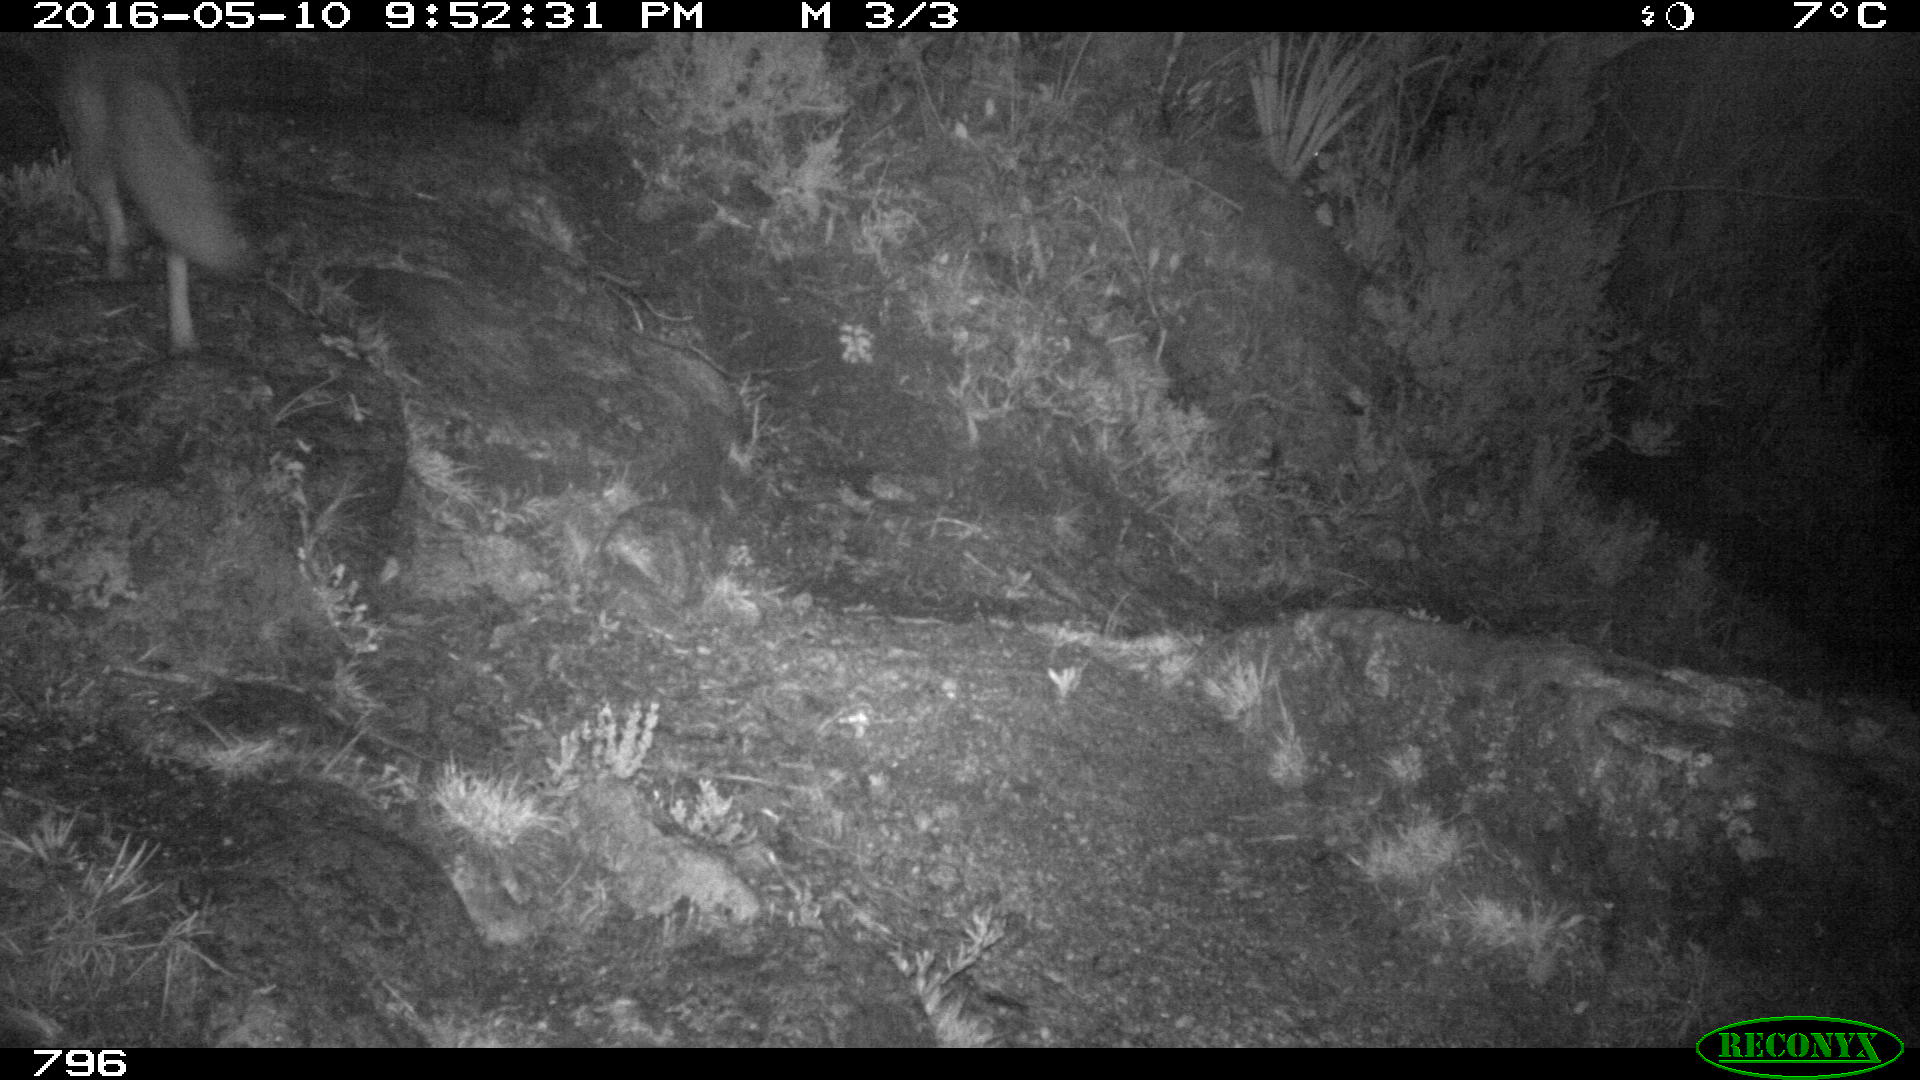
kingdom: Animalia
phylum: Chordata
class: Mammalia
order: Carnivora
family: Canidae
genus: Vulpes
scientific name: Vulpes vulpes
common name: Red fox
